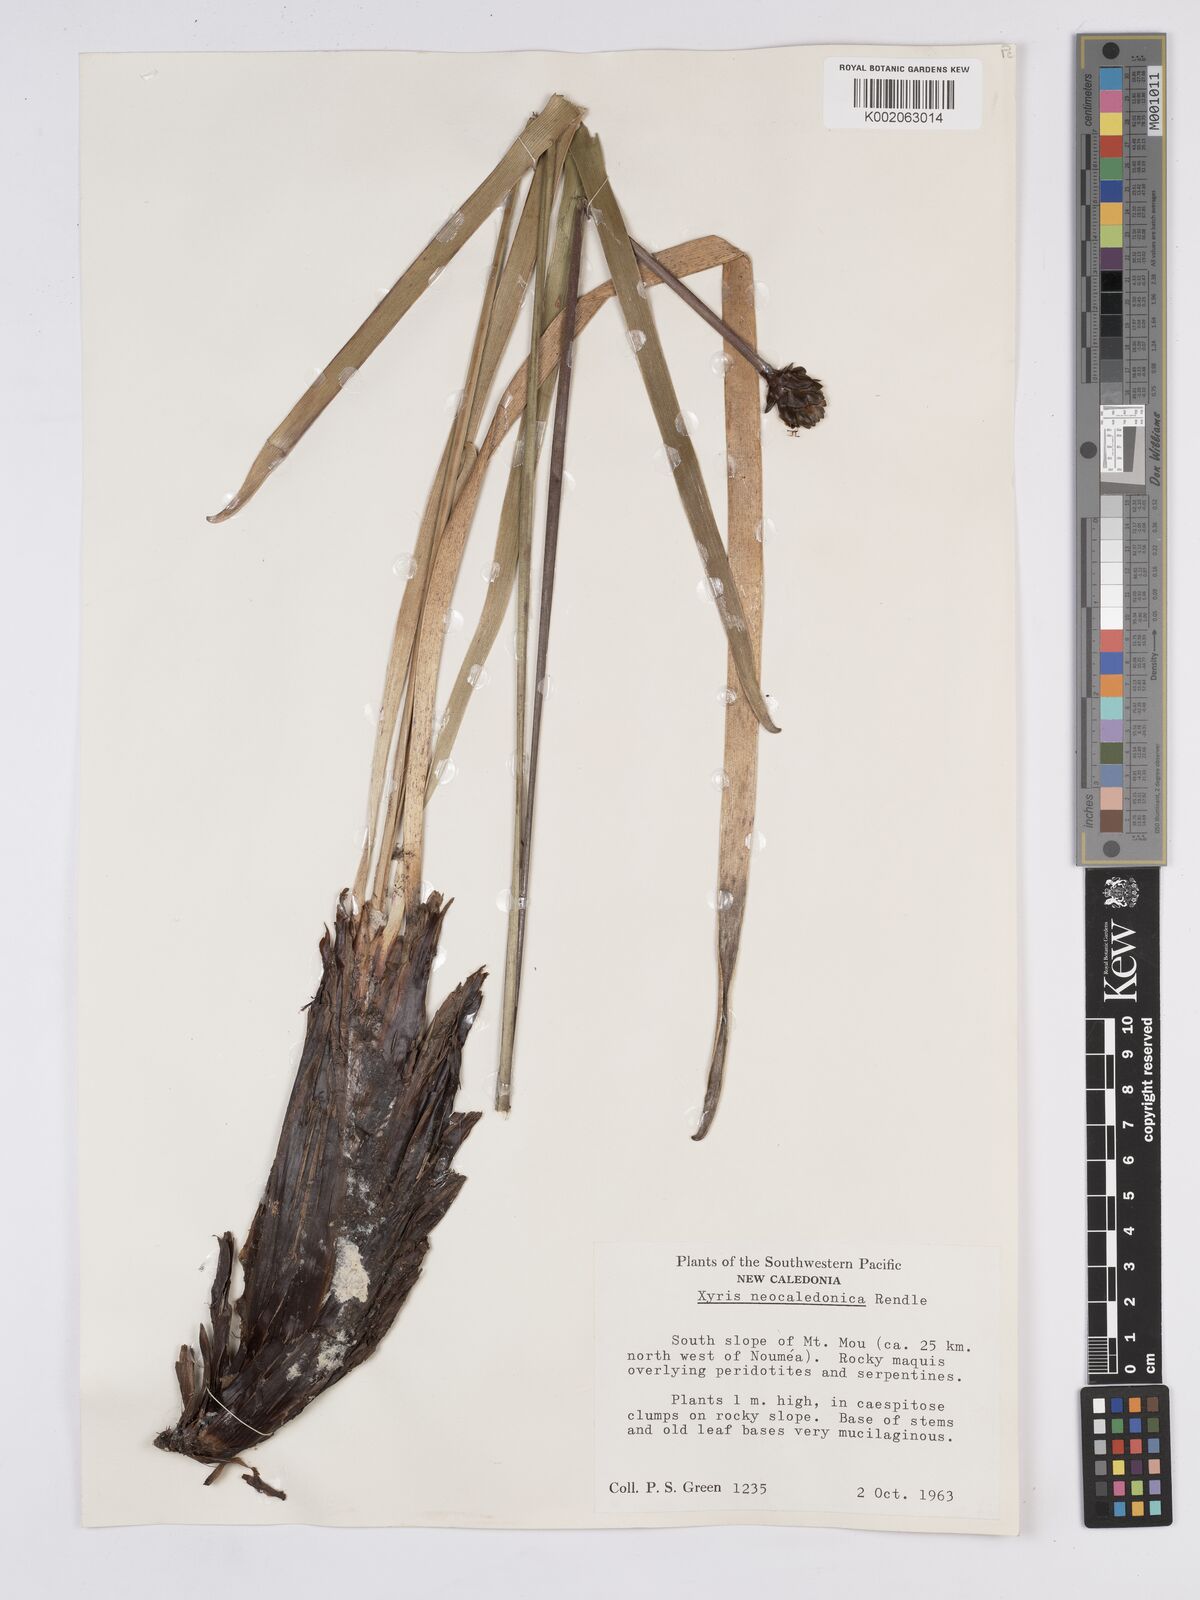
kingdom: Plantae
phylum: Tracheophyta
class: Liliopsida
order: Poales
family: Xyridaceae
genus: Xyris
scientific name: Xyris neocaledonica
